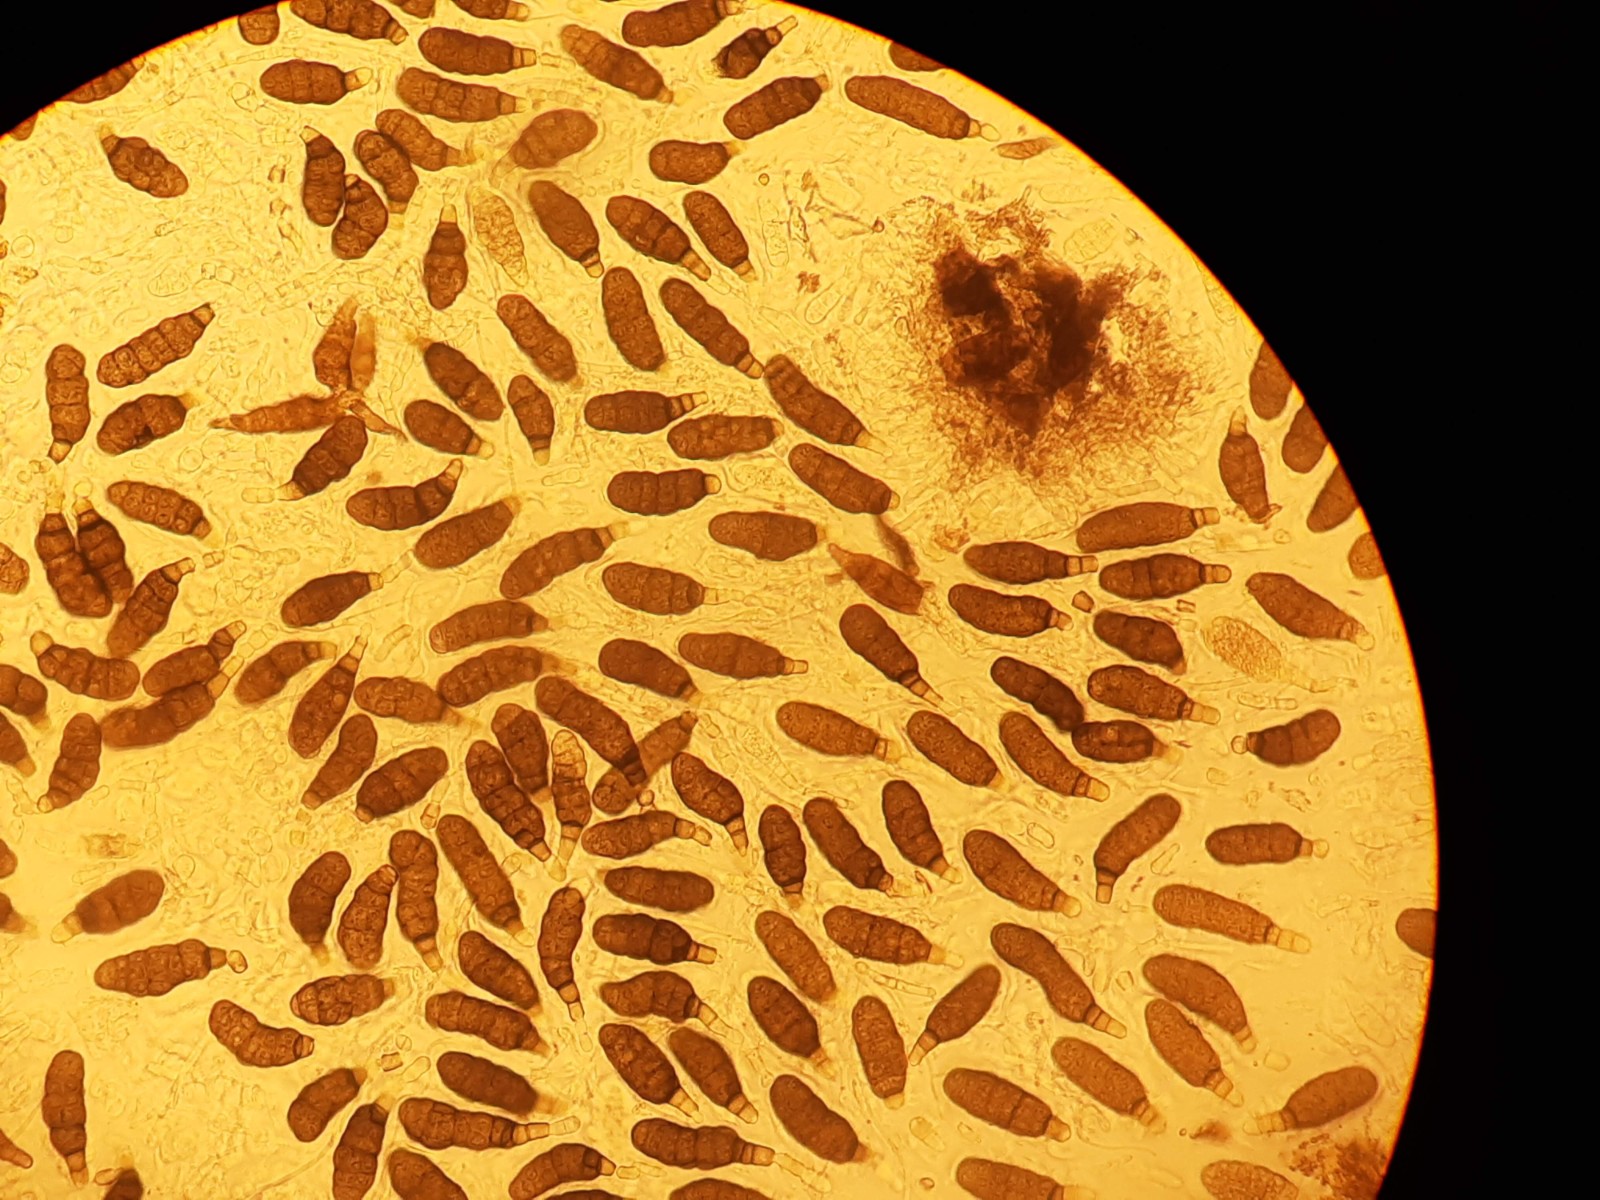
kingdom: Fungi
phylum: Ascomycota
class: Dothideomycetes
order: Pleosporales
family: Pleomassariaceae
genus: Splanchnonema
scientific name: Splanchnonema argus
